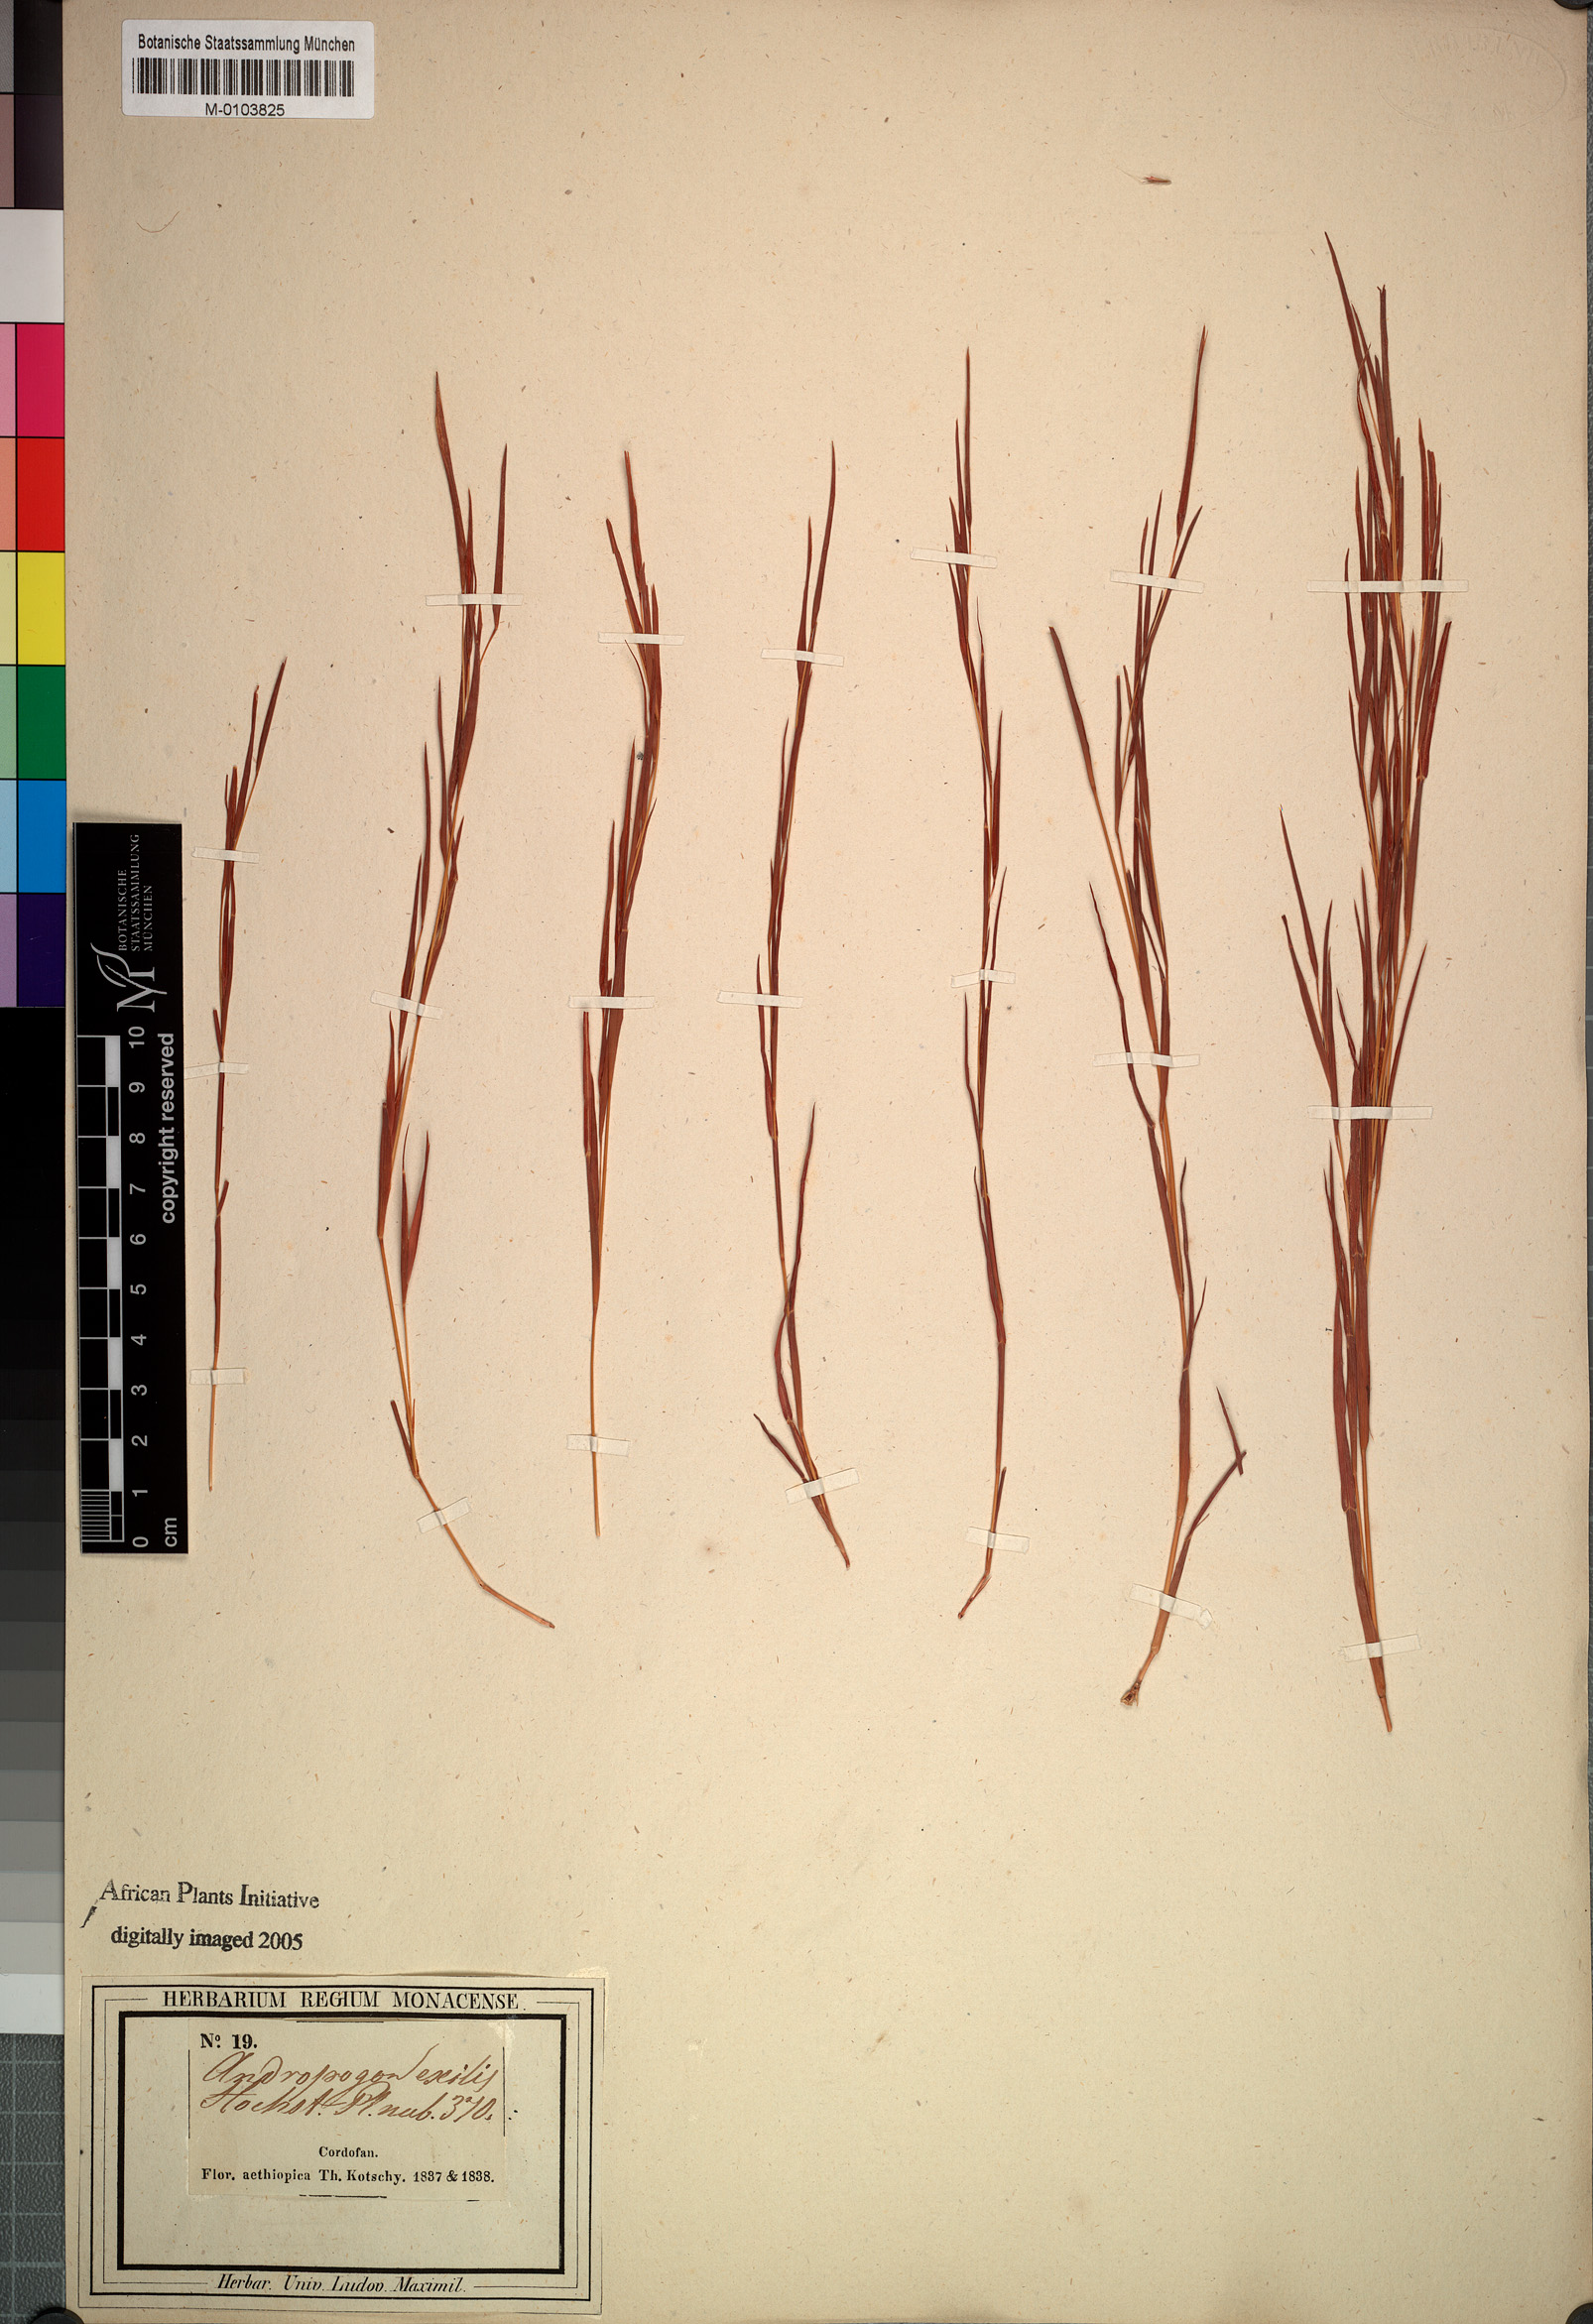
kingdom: Plantae
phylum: Tracheophyta
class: Liliopsida
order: Poales
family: Poaceae
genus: Schizachyrium
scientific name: Schizachyrium exile
